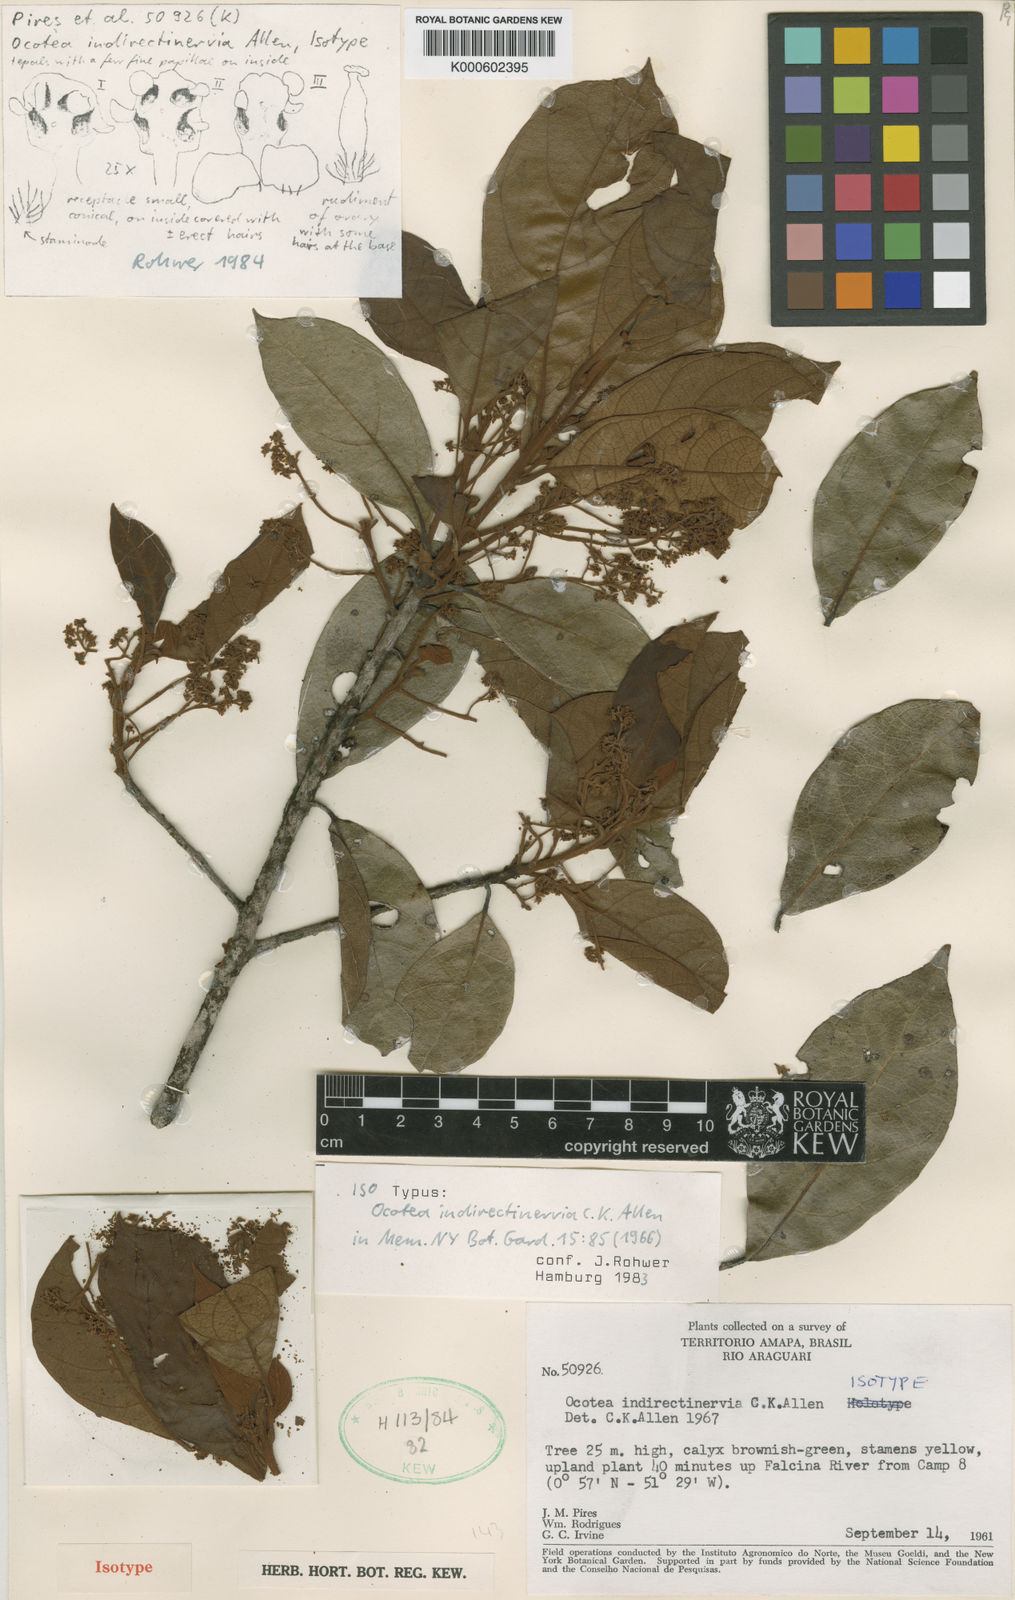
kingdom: Plantae
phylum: Tracheophyta
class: Magnoliopsida
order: Laurales
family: Lauraceae
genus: Ocotea
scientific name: Ocotea indirectinervia
